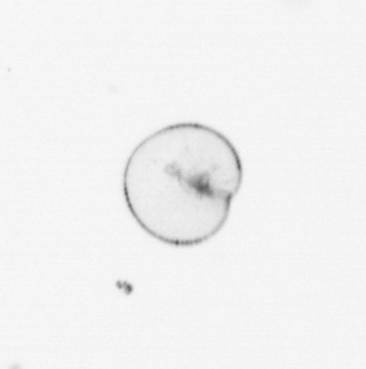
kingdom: Chromista
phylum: Myzozoa
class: Dinophyceae
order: Noctilucales
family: Noctilucaceae
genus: Noctiluca
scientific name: Noctiluca scintillans
